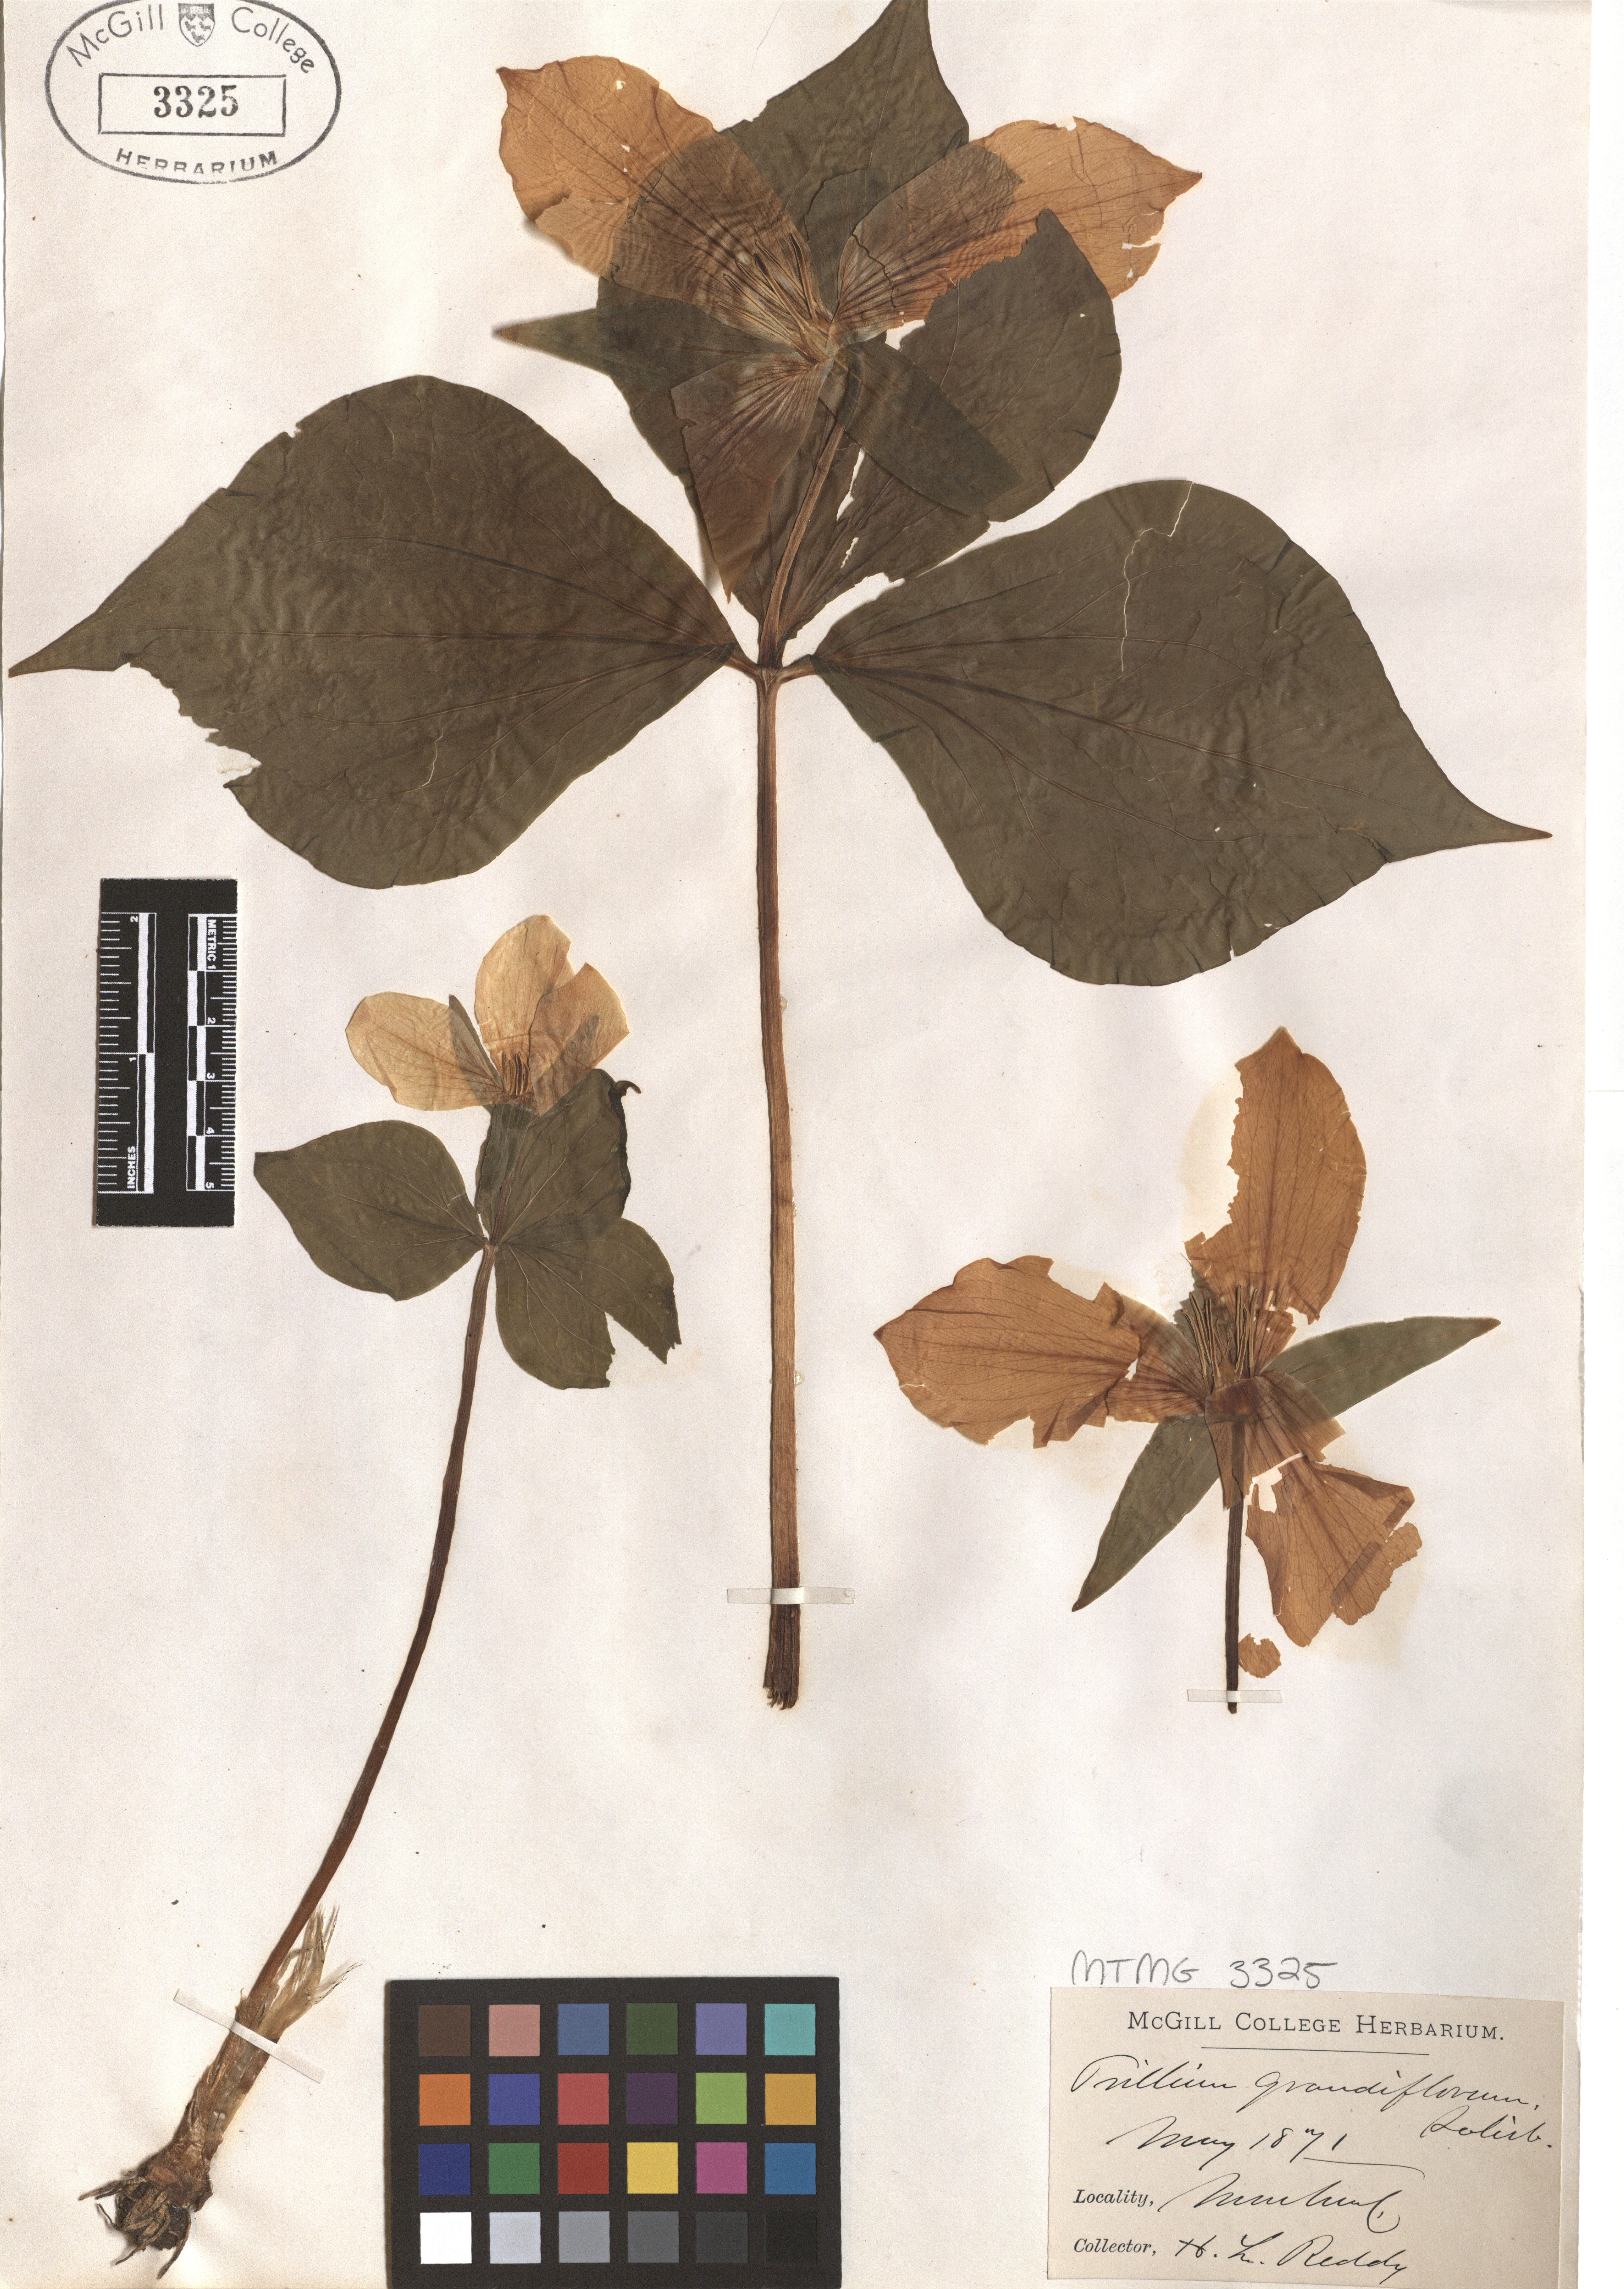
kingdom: Plantae
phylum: Tracheophyta
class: Liliopsida
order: Liliales
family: Melanthiaceae
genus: Trillium
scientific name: Trillium grandiflorum
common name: Great white trillium
